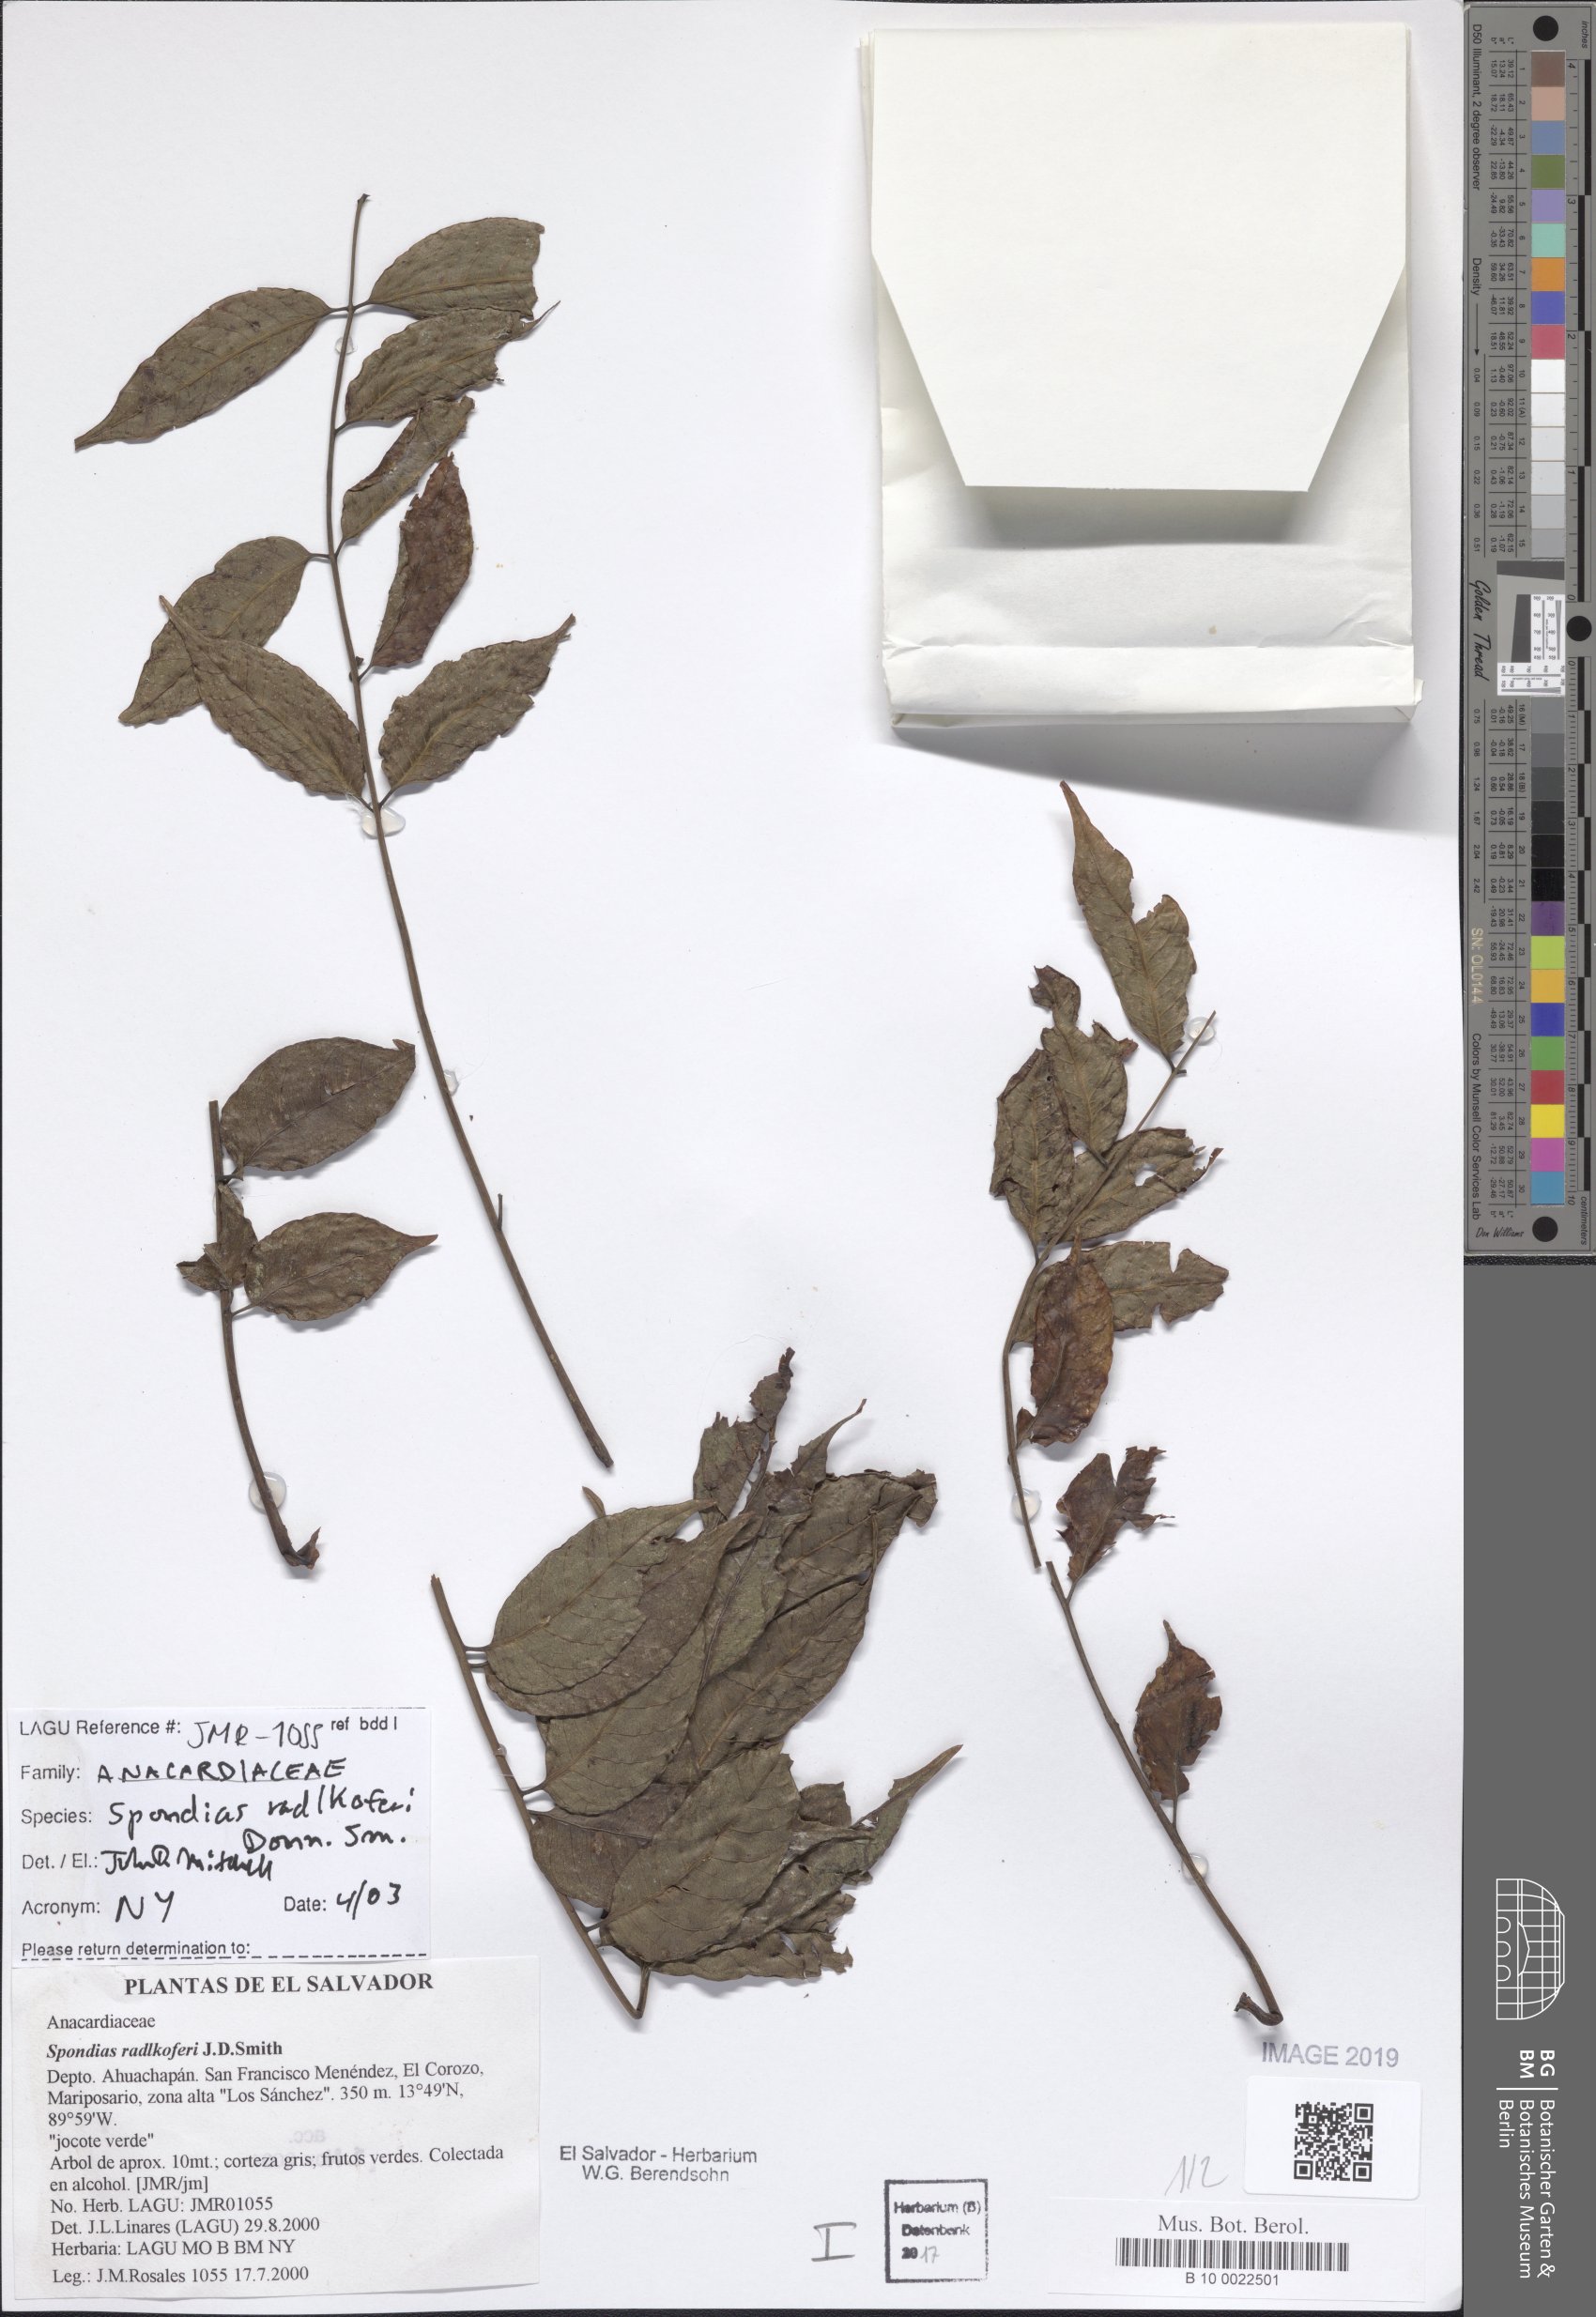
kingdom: Plantae
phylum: Tracheophyta
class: Magnoliopsida
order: Sapindales
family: Anacardiaceae
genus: Spondias
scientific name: Spondias radlkoferi
